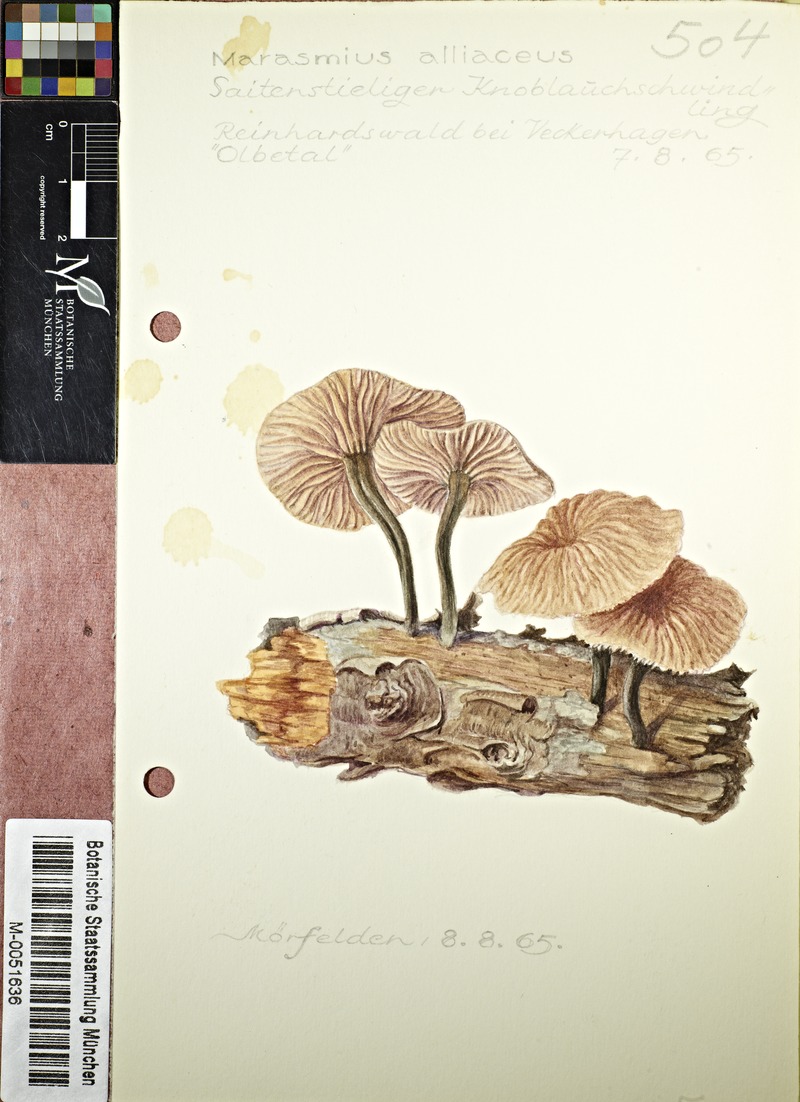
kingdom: Fungi
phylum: Basidiomycota
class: Agaricomycetes
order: Agaricales
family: Omphalotaceae
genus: Gymnopus
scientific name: Gymnopus foetidus
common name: Foetid parachute
